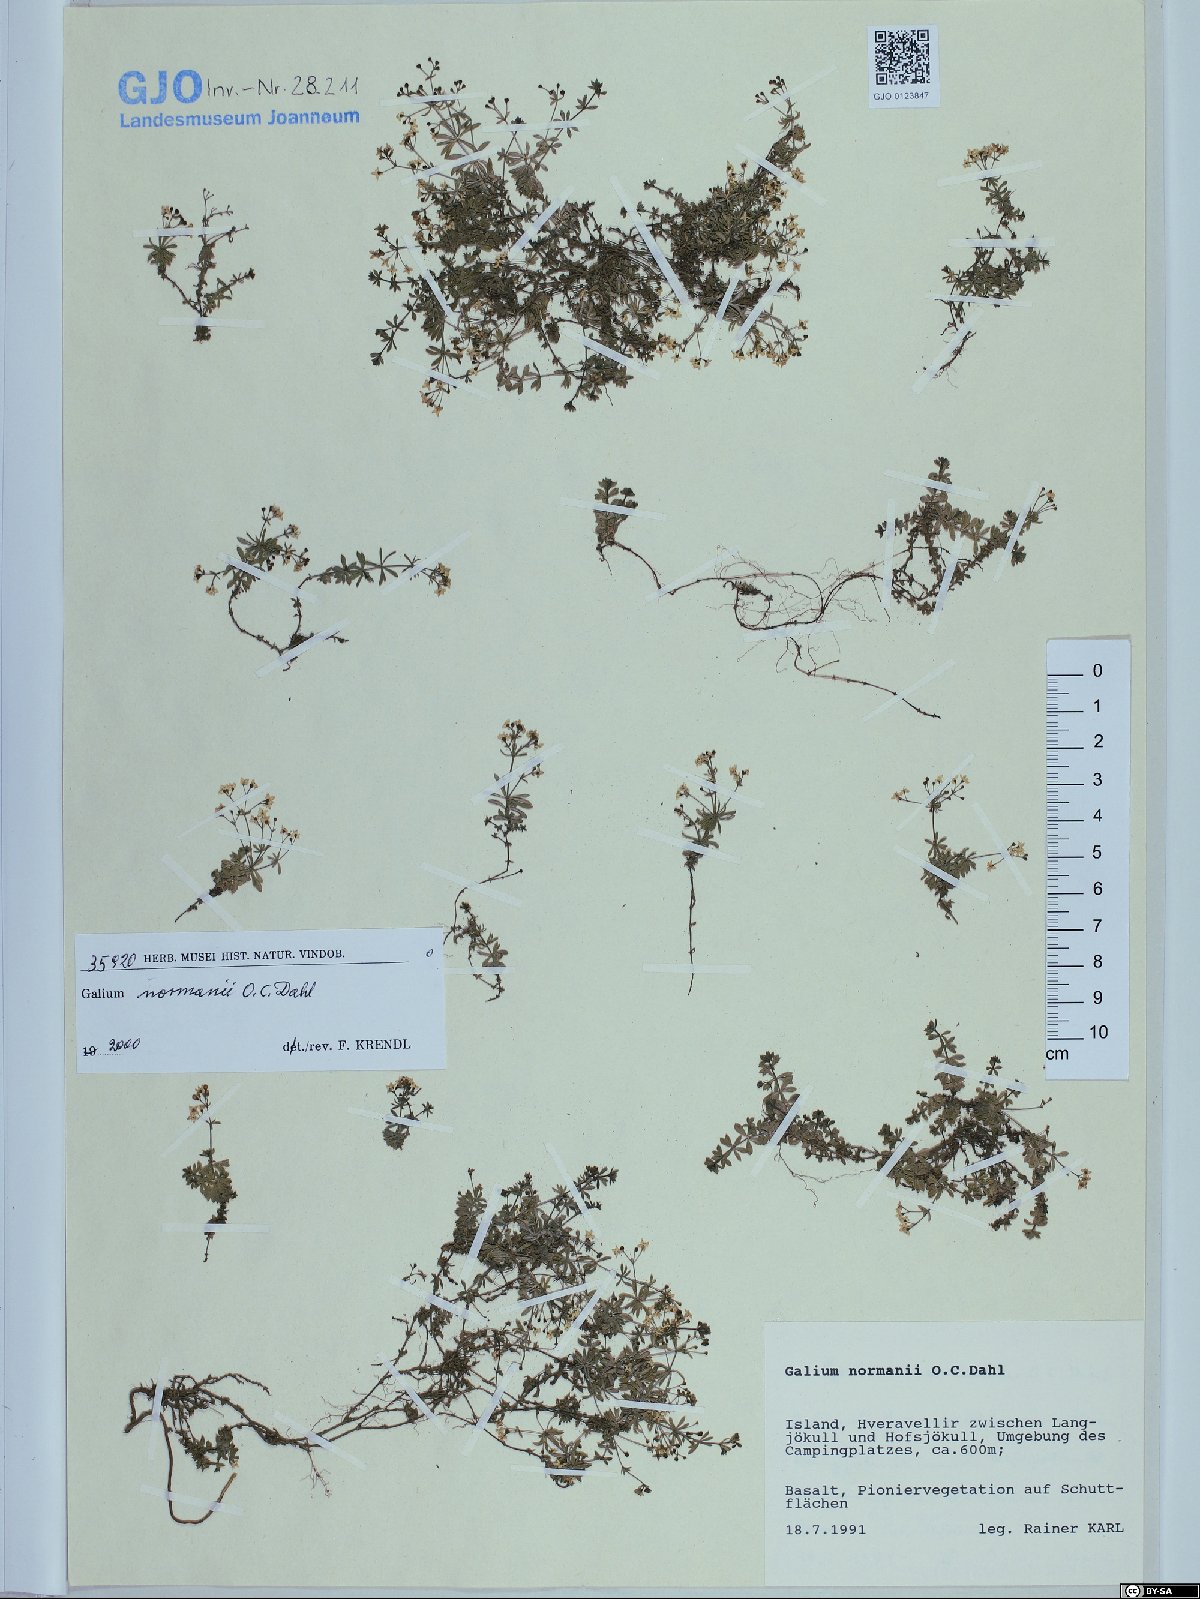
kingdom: Plantae
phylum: Tracheophyta
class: Magnoliopsida
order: Gentianales
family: Rubiaceae
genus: Galium
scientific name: Galium normanii
